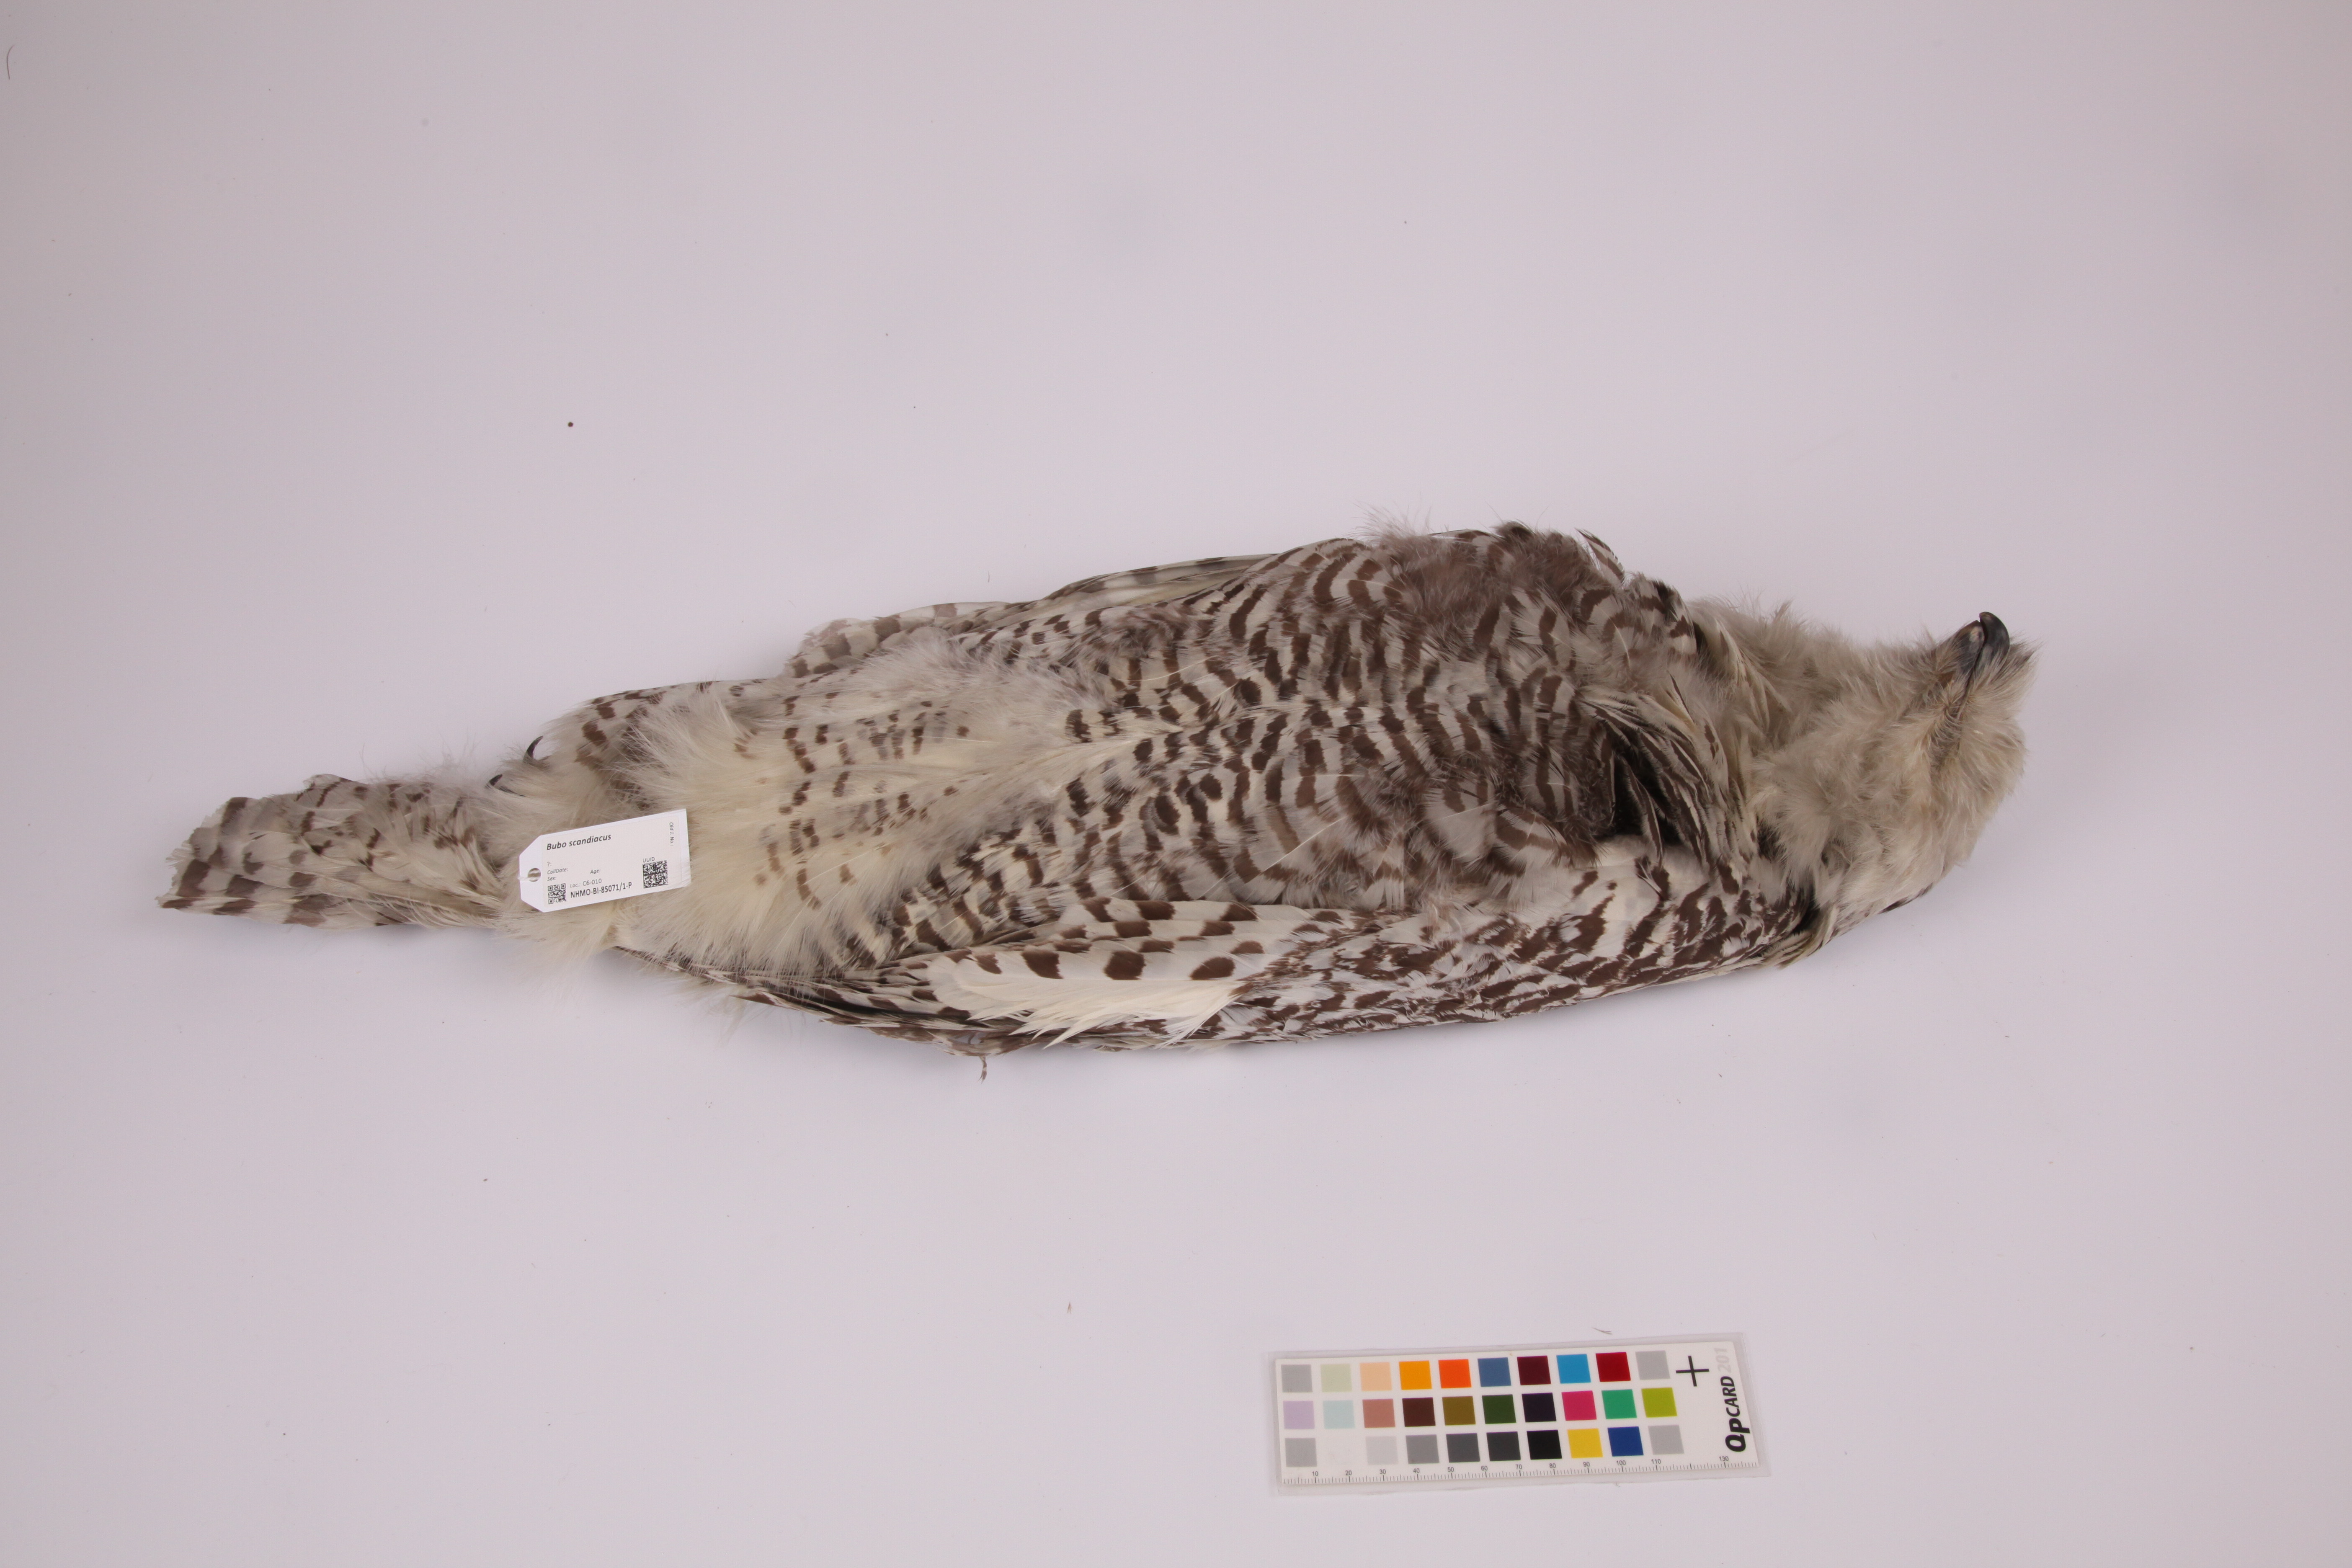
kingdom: Animalia
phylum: Chordata
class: Aves
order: Strigiformes
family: Strigidae
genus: Bubo
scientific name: Bubo scandiacus
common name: Snowy owl
